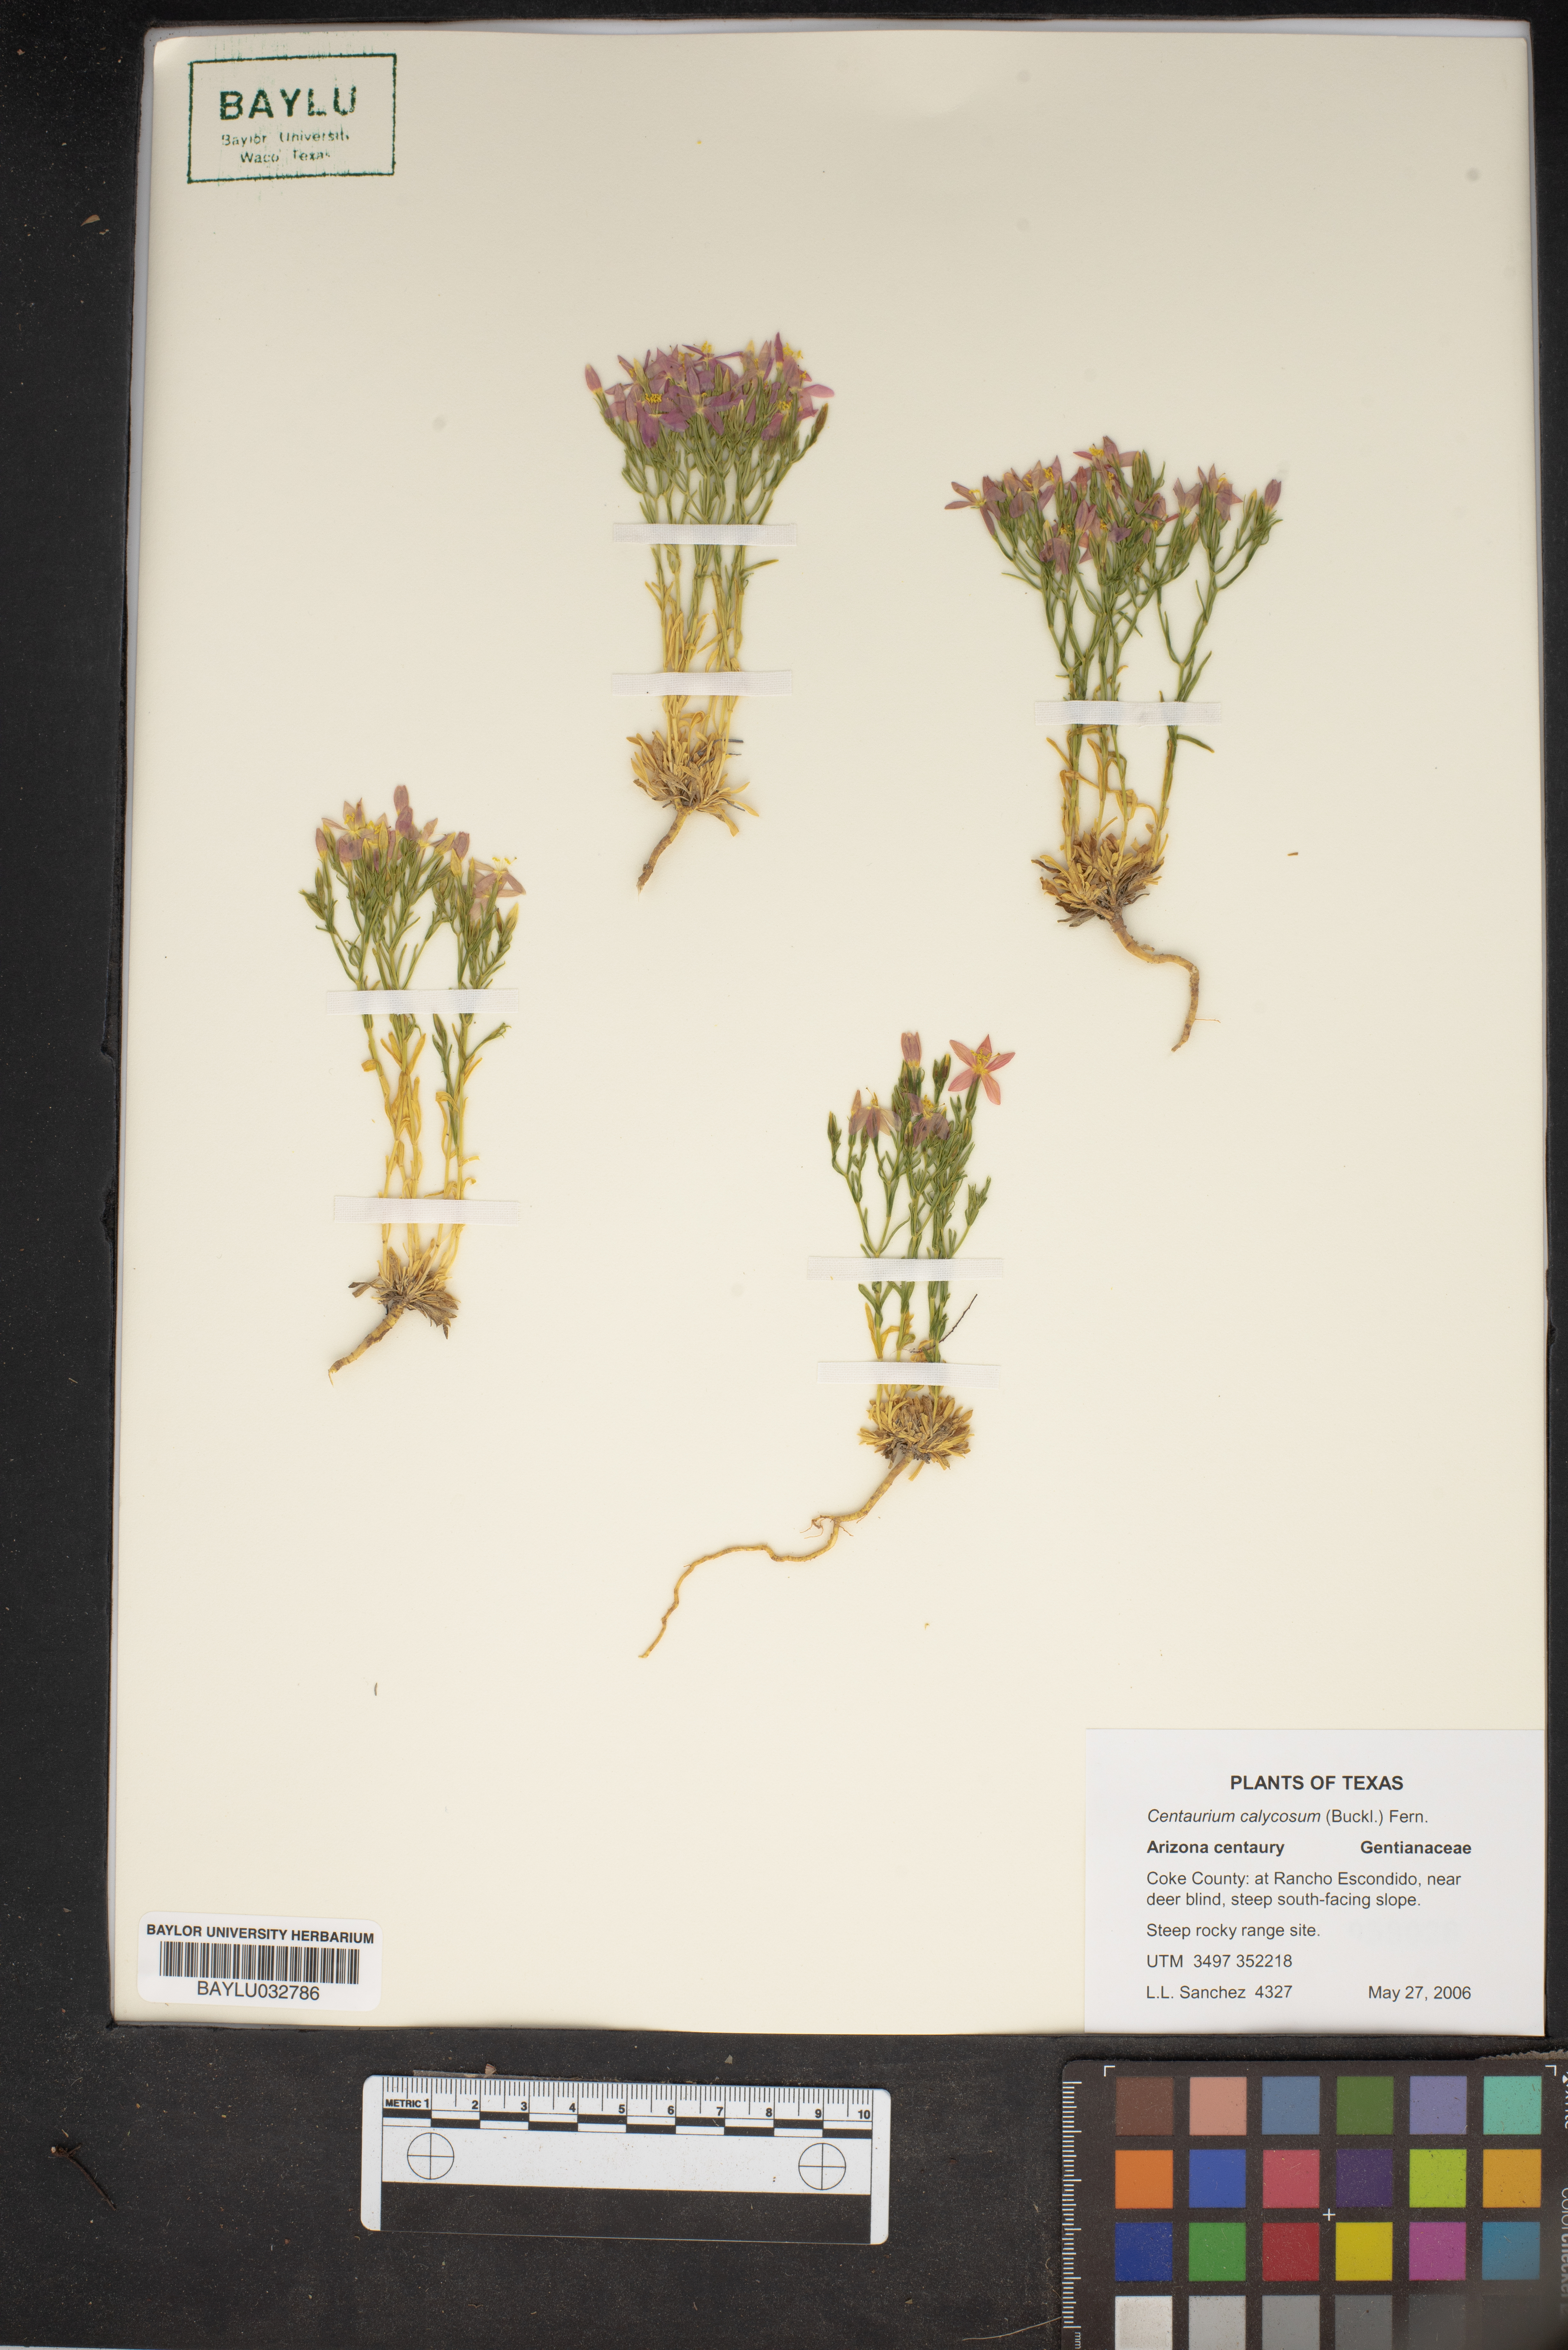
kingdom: Plantae
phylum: Tracheophyta
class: Magnoliopsida
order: Gentianales
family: Gentianaceae
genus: Zeltnera
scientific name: Zeltnera calycosa
